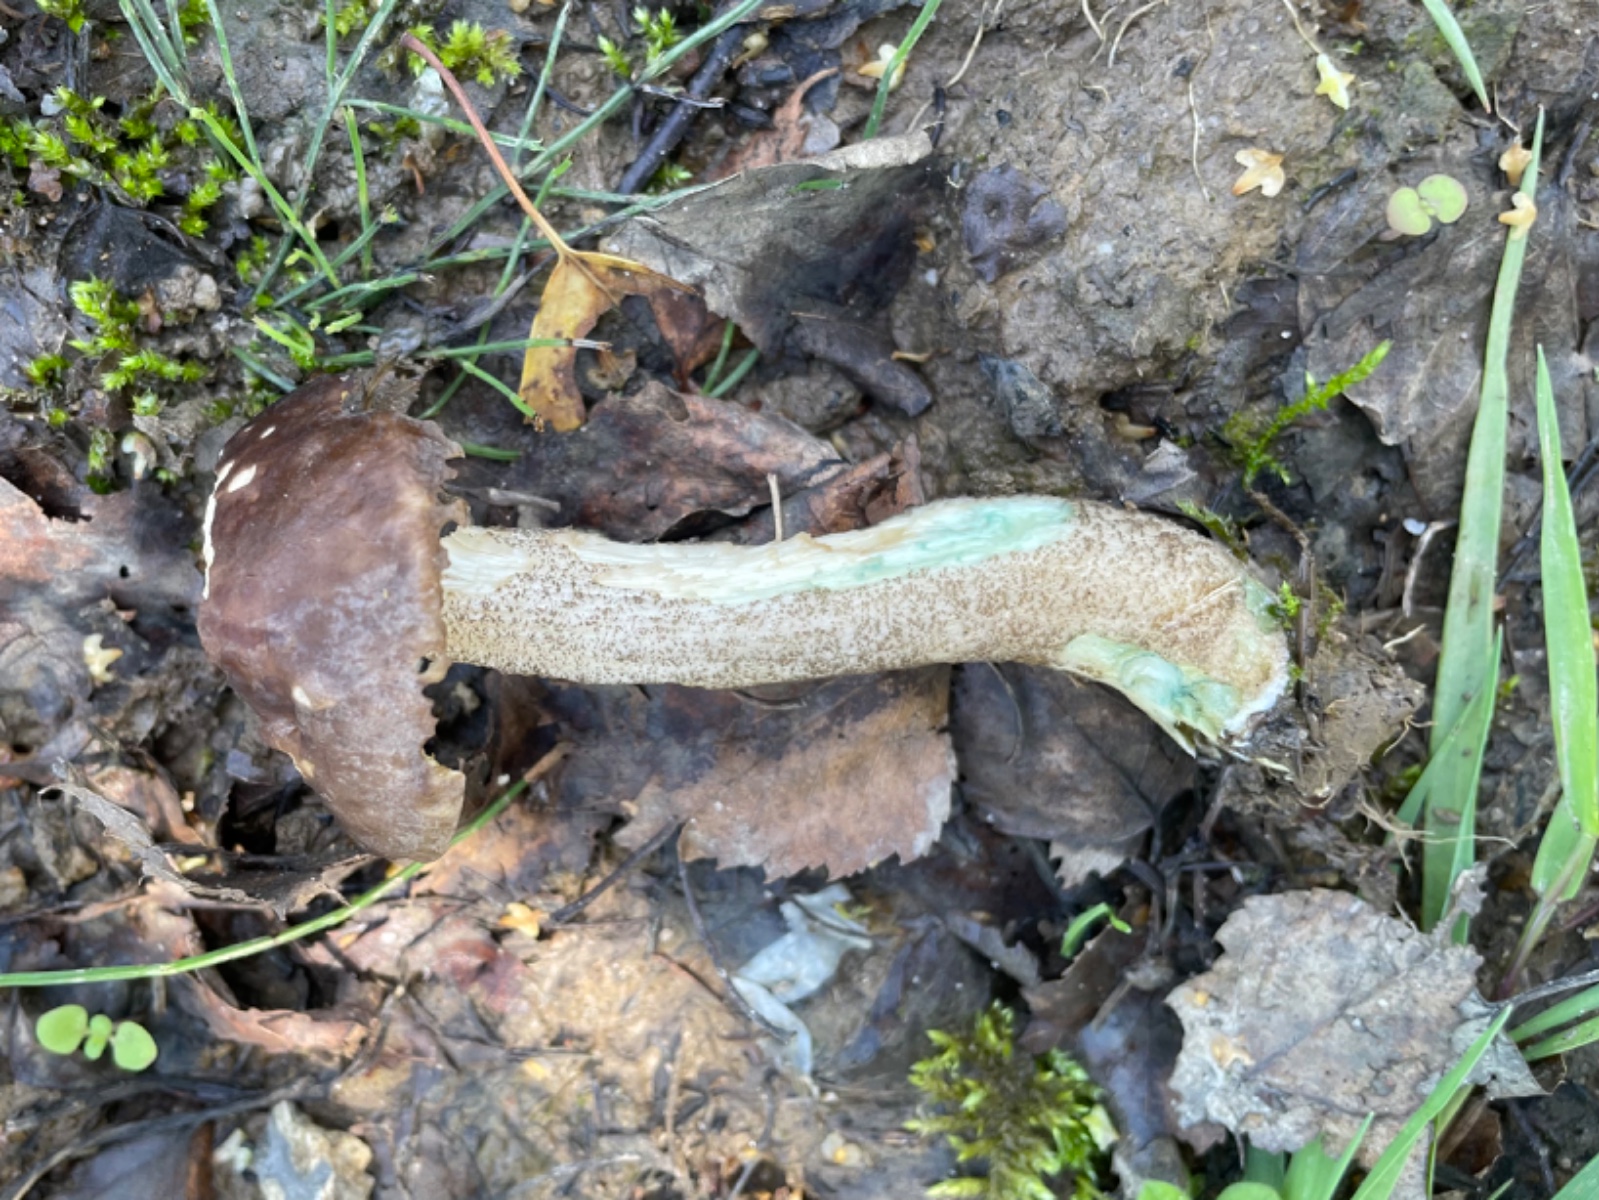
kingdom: Fungi
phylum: Basidiomycota
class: Agaricomycetes
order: Boletales
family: Boletaceae
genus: Leccinum
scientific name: Leccinum cyaneobasileucum
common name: almindelig skælrørhat
